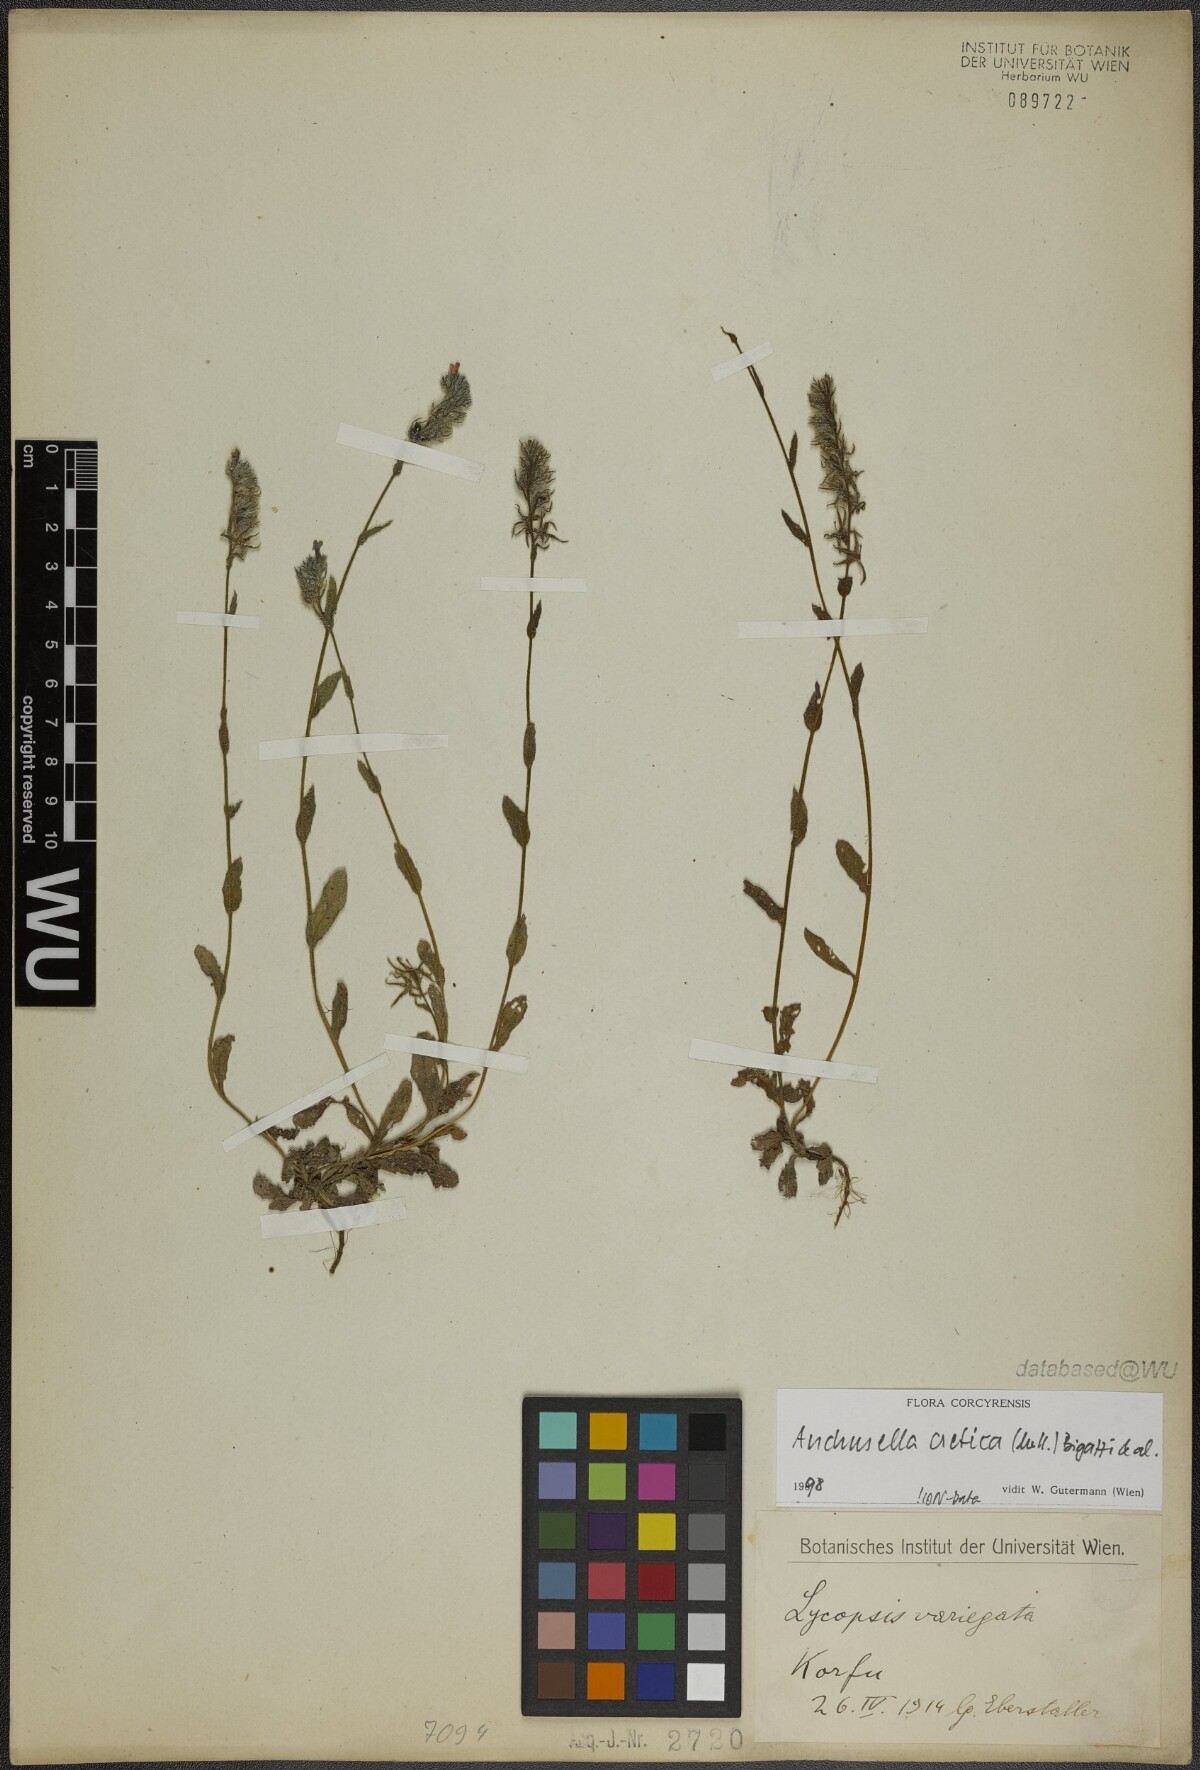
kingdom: Plantae
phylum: Tracheophyta
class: Magnoliopsida
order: Boraginales
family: Boraginaceae
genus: Anchusella
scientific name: Anchusella cretica
